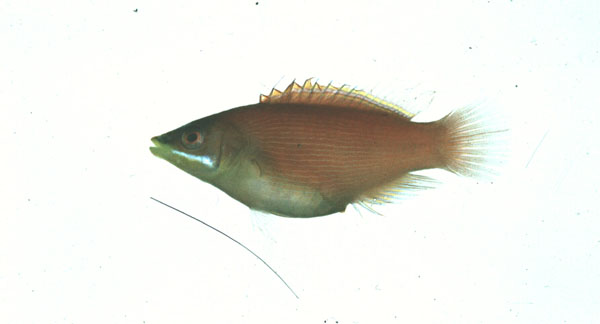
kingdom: Animalia
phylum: Chordata
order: Perciformes
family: Labridae
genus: Pseudocheilinus
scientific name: Pseudocheilinus evanidus
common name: Disappearing wrasse
